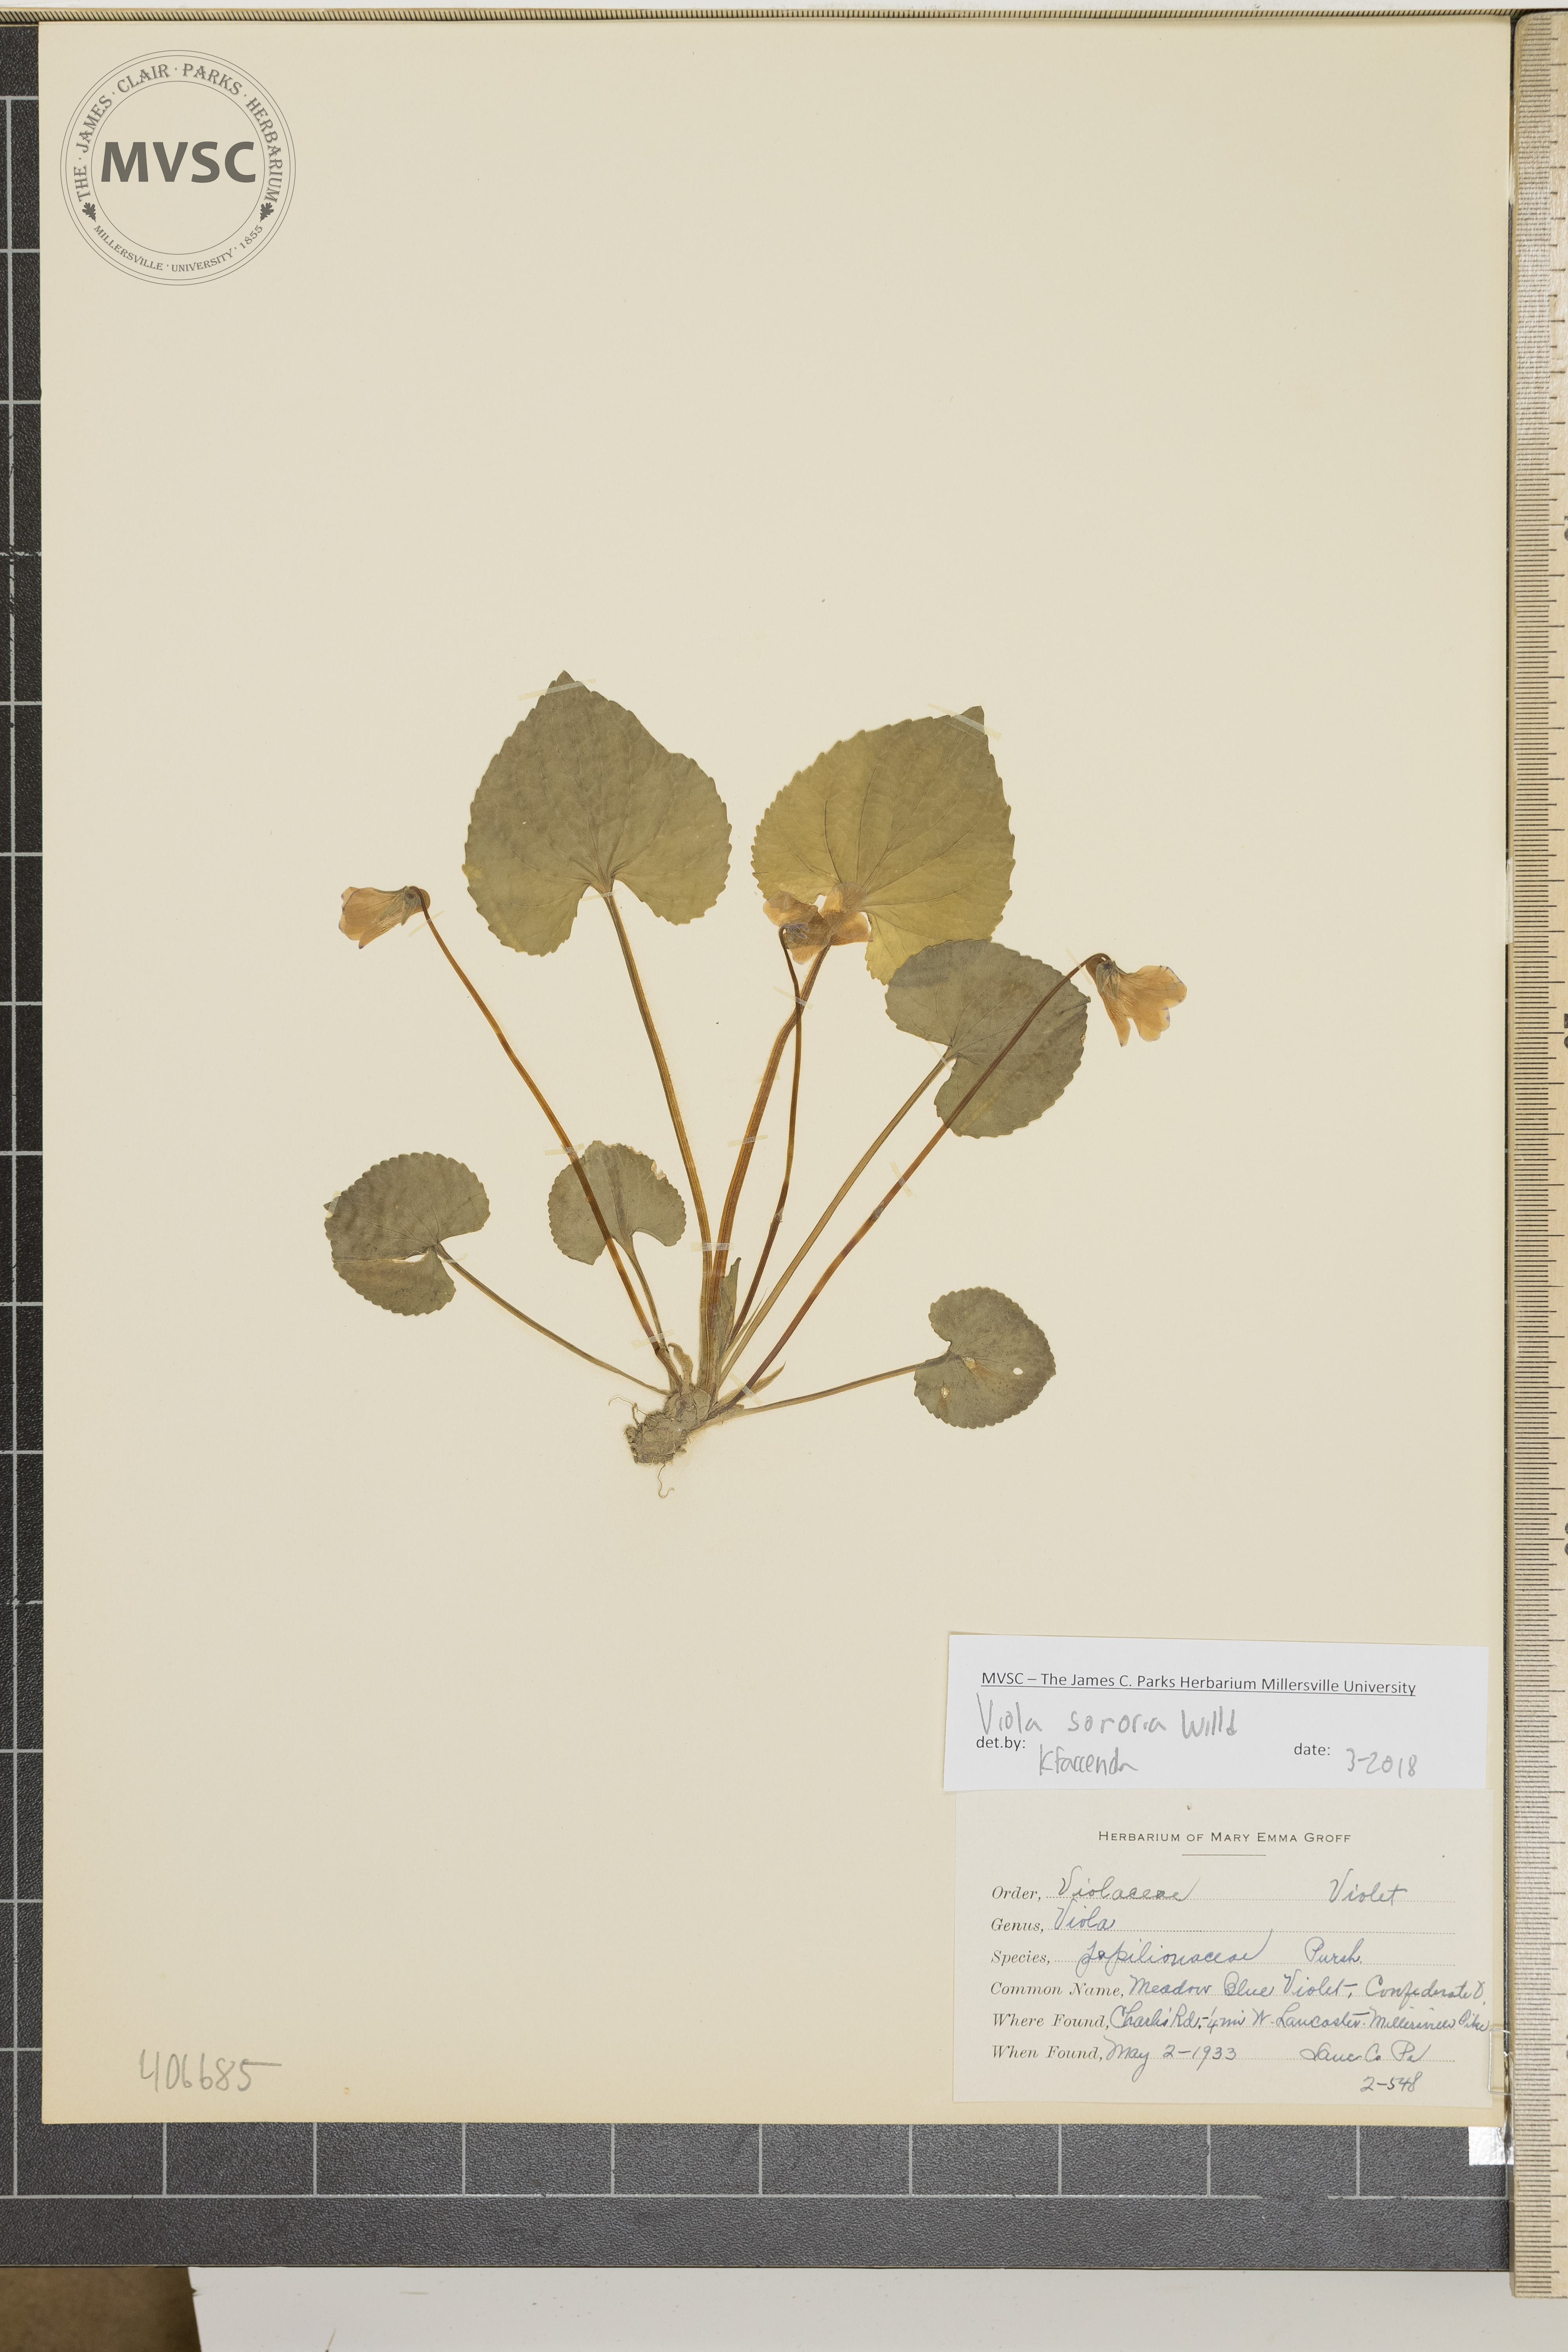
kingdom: Plantae
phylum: Tracheophyta
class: Magnoliopsida
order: Malpighiales
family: Violaceae
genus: Viola
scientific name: Viola sororia
